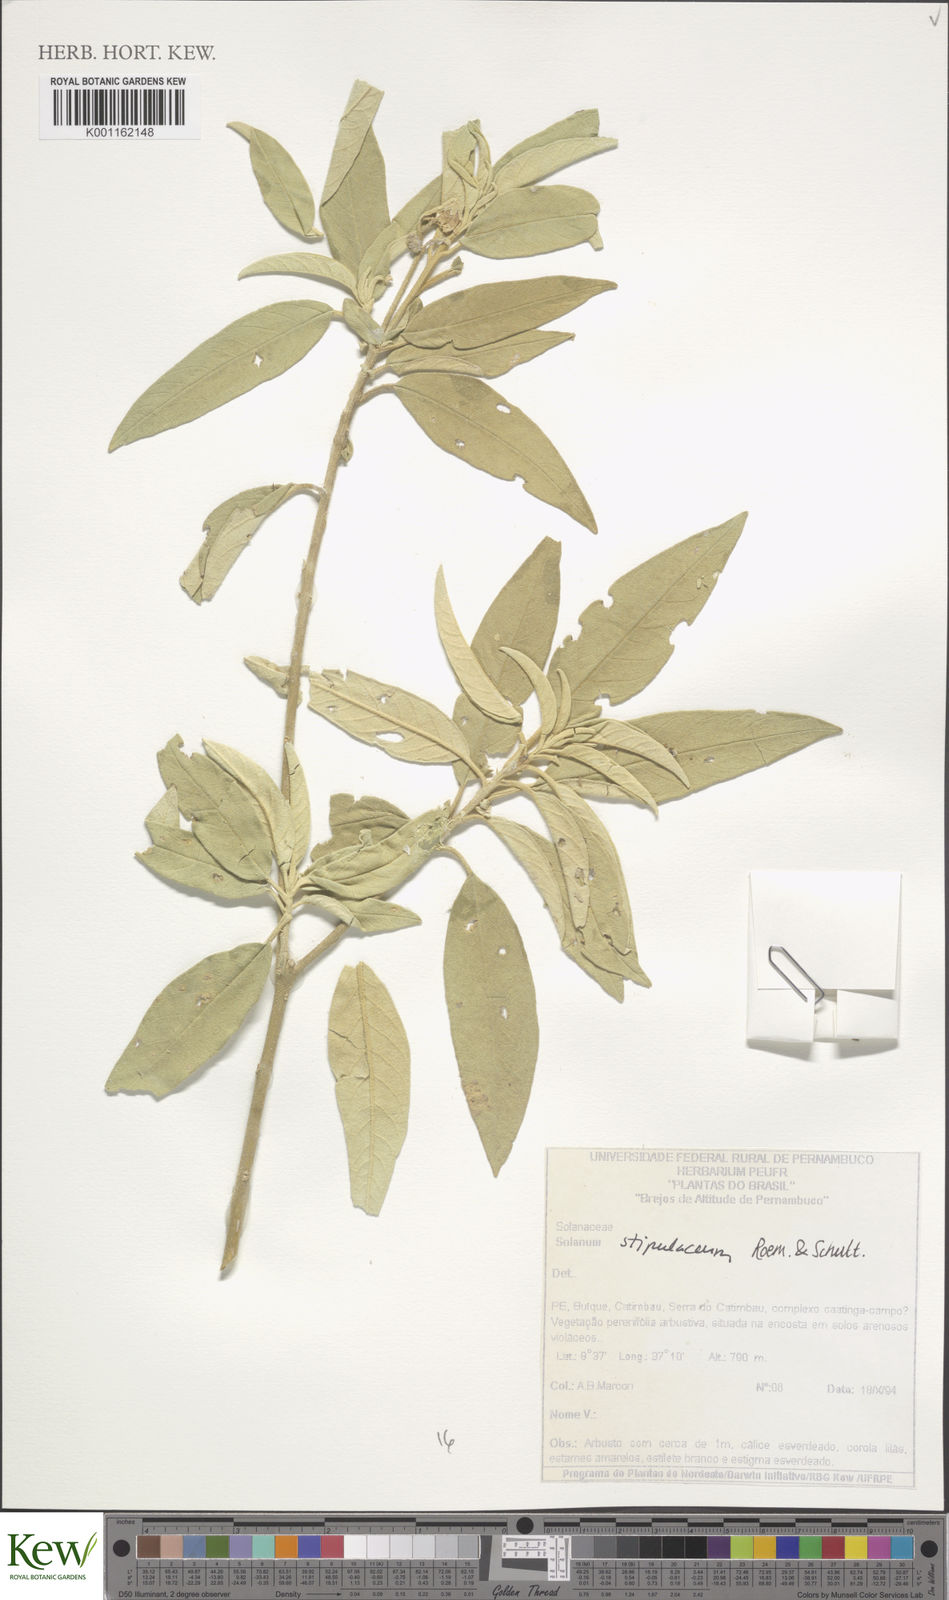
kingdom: Plantae
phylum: Tracheophyta
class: Magnoliopsida
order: Solanales
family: Solanaceae
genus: Solanum
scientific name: Solanum stipulaceum
